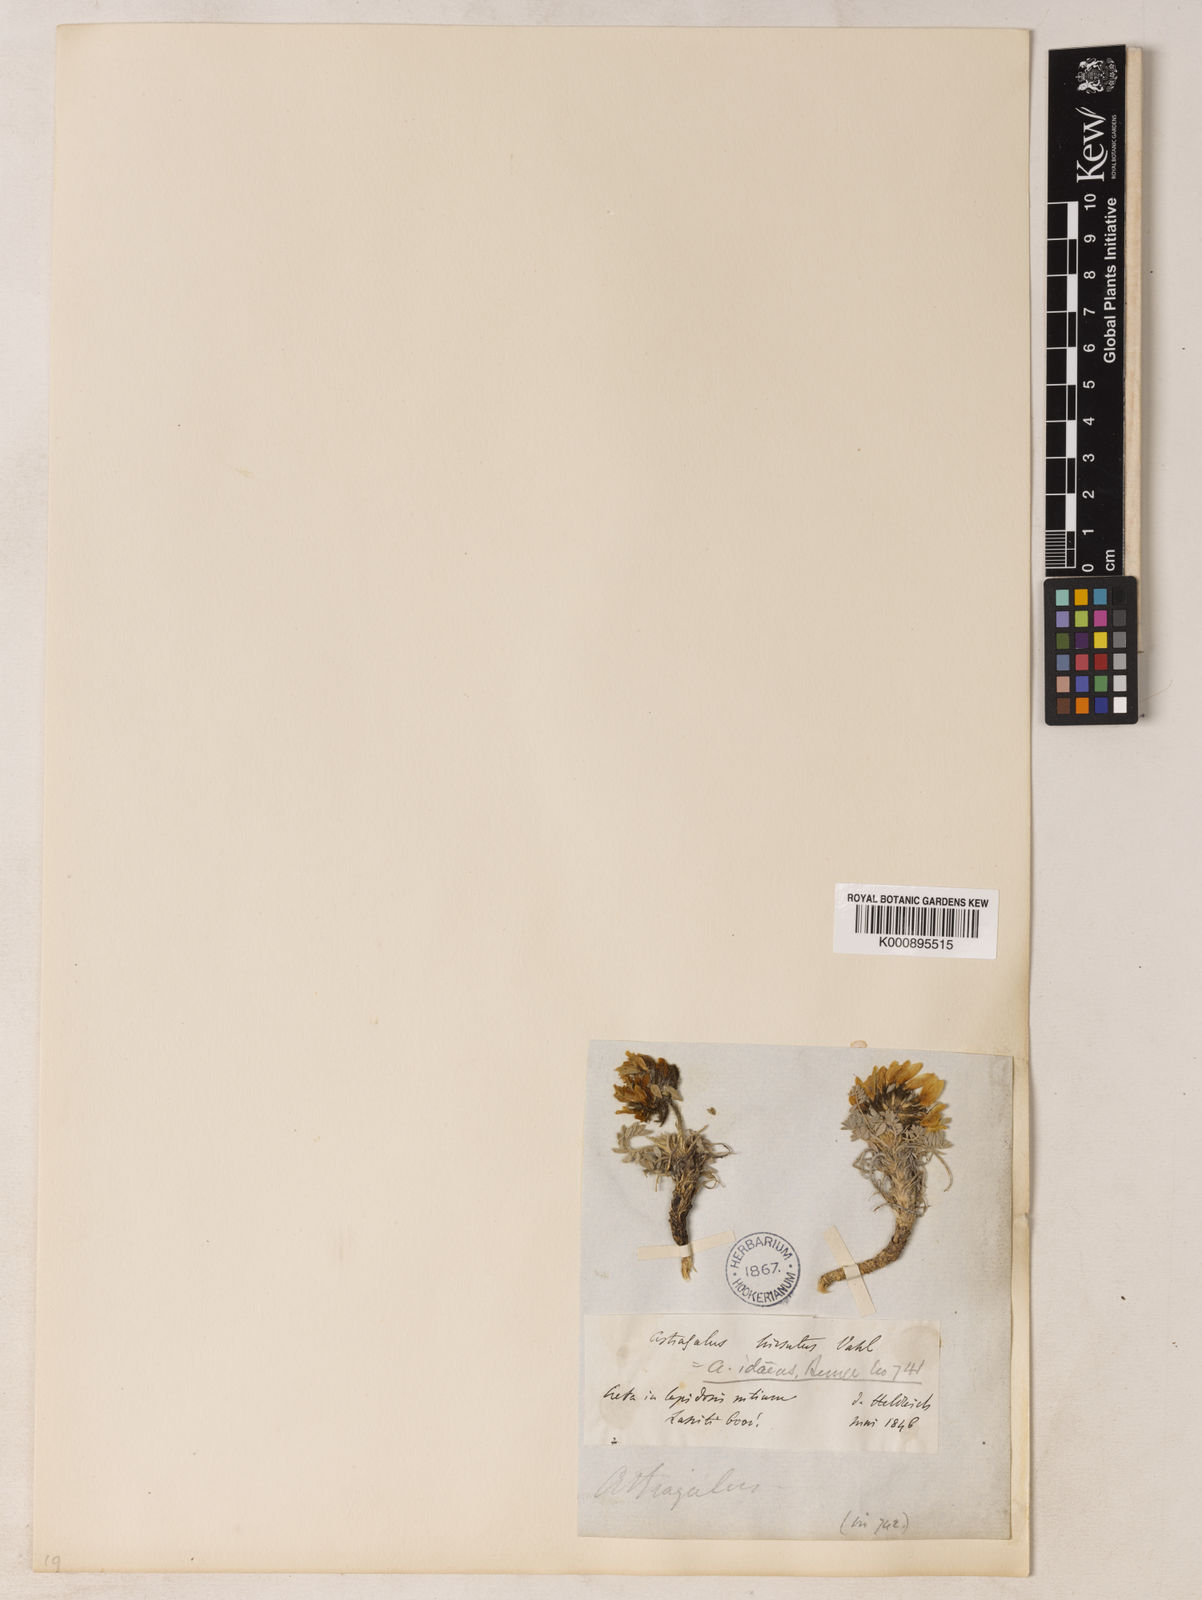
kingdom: Plantae
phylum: Tracheophyta
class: Magnoliopsida
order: Fabales
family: Fabaceae
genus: Astragalus
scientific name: Astragalus idaeus
